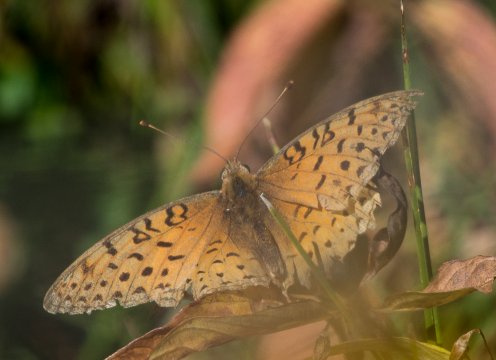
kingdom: Animalia
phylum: Arthropoda
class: Insecta
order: Lepidoptera
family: Nymphalidae
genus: Speyeria
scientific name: Speyeria coronis
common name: Coronis Fritillary
